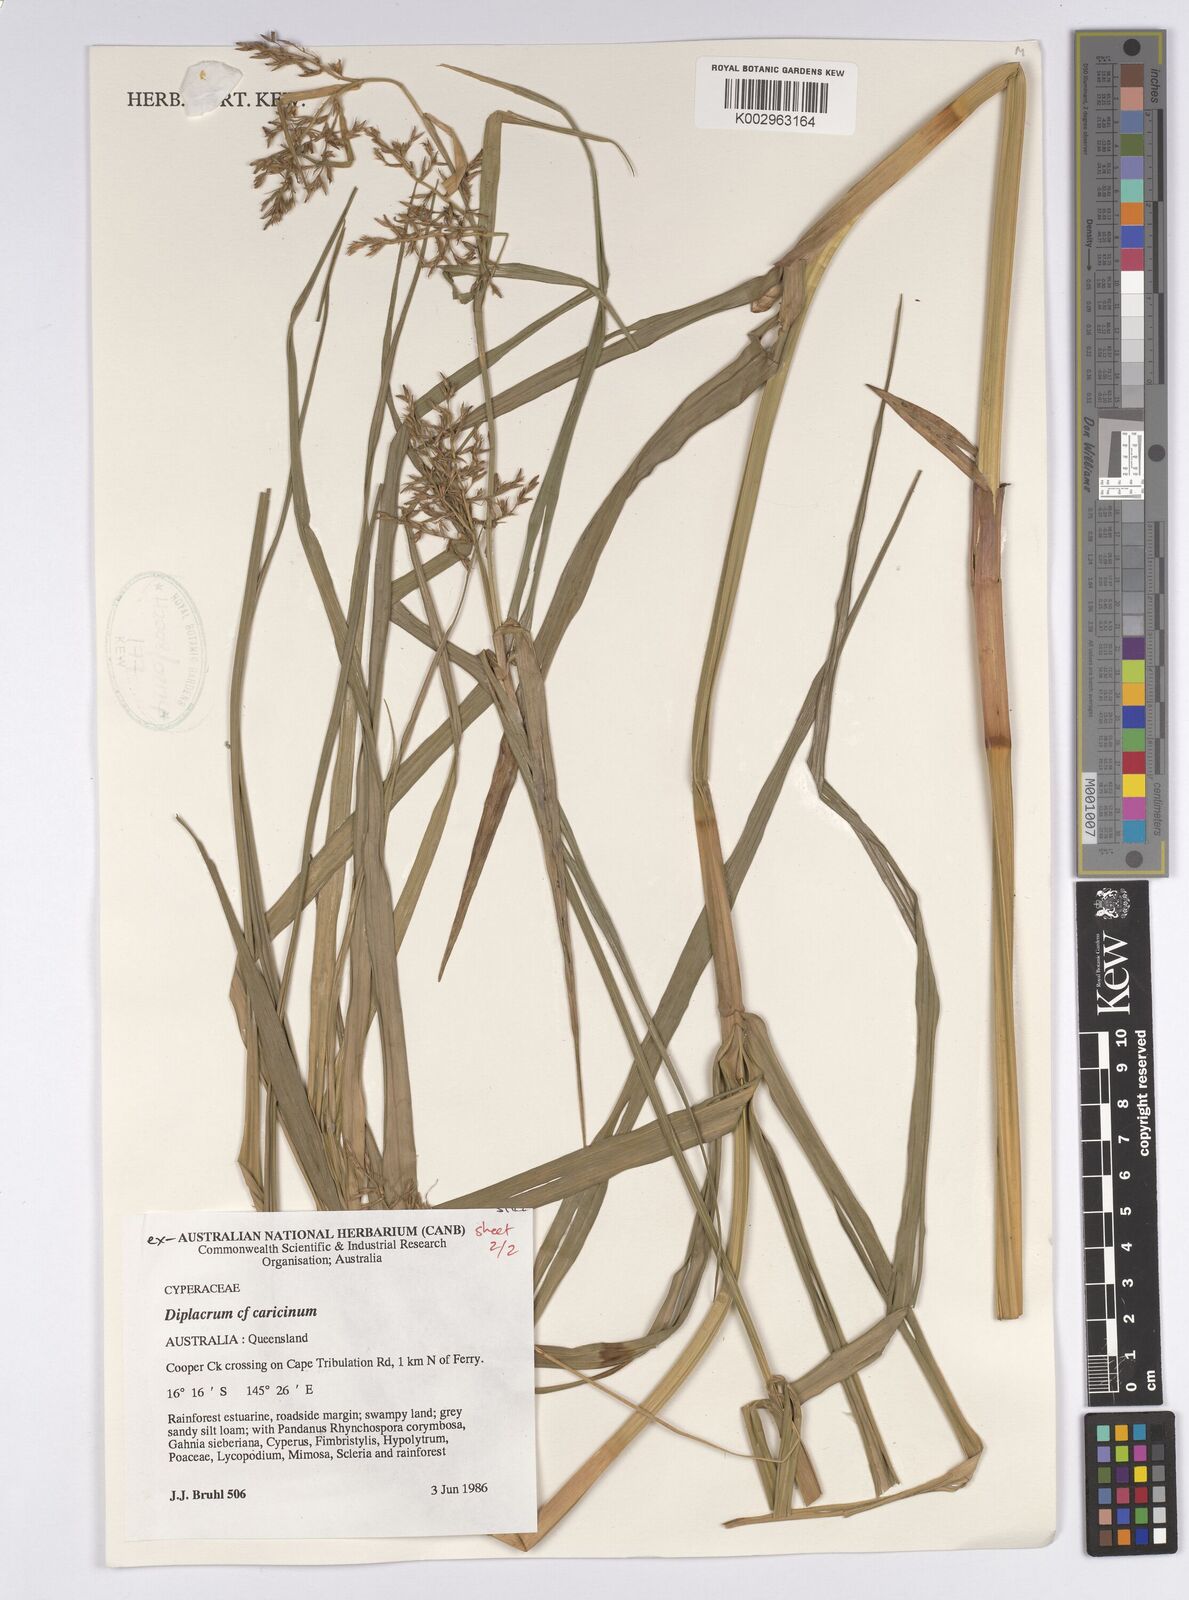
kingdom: Plantae
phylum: Tracheophyta
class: Liliopsida
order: Poales
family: Cyperaceae
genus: Diplacrum
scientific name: Diplacrum caricinum
